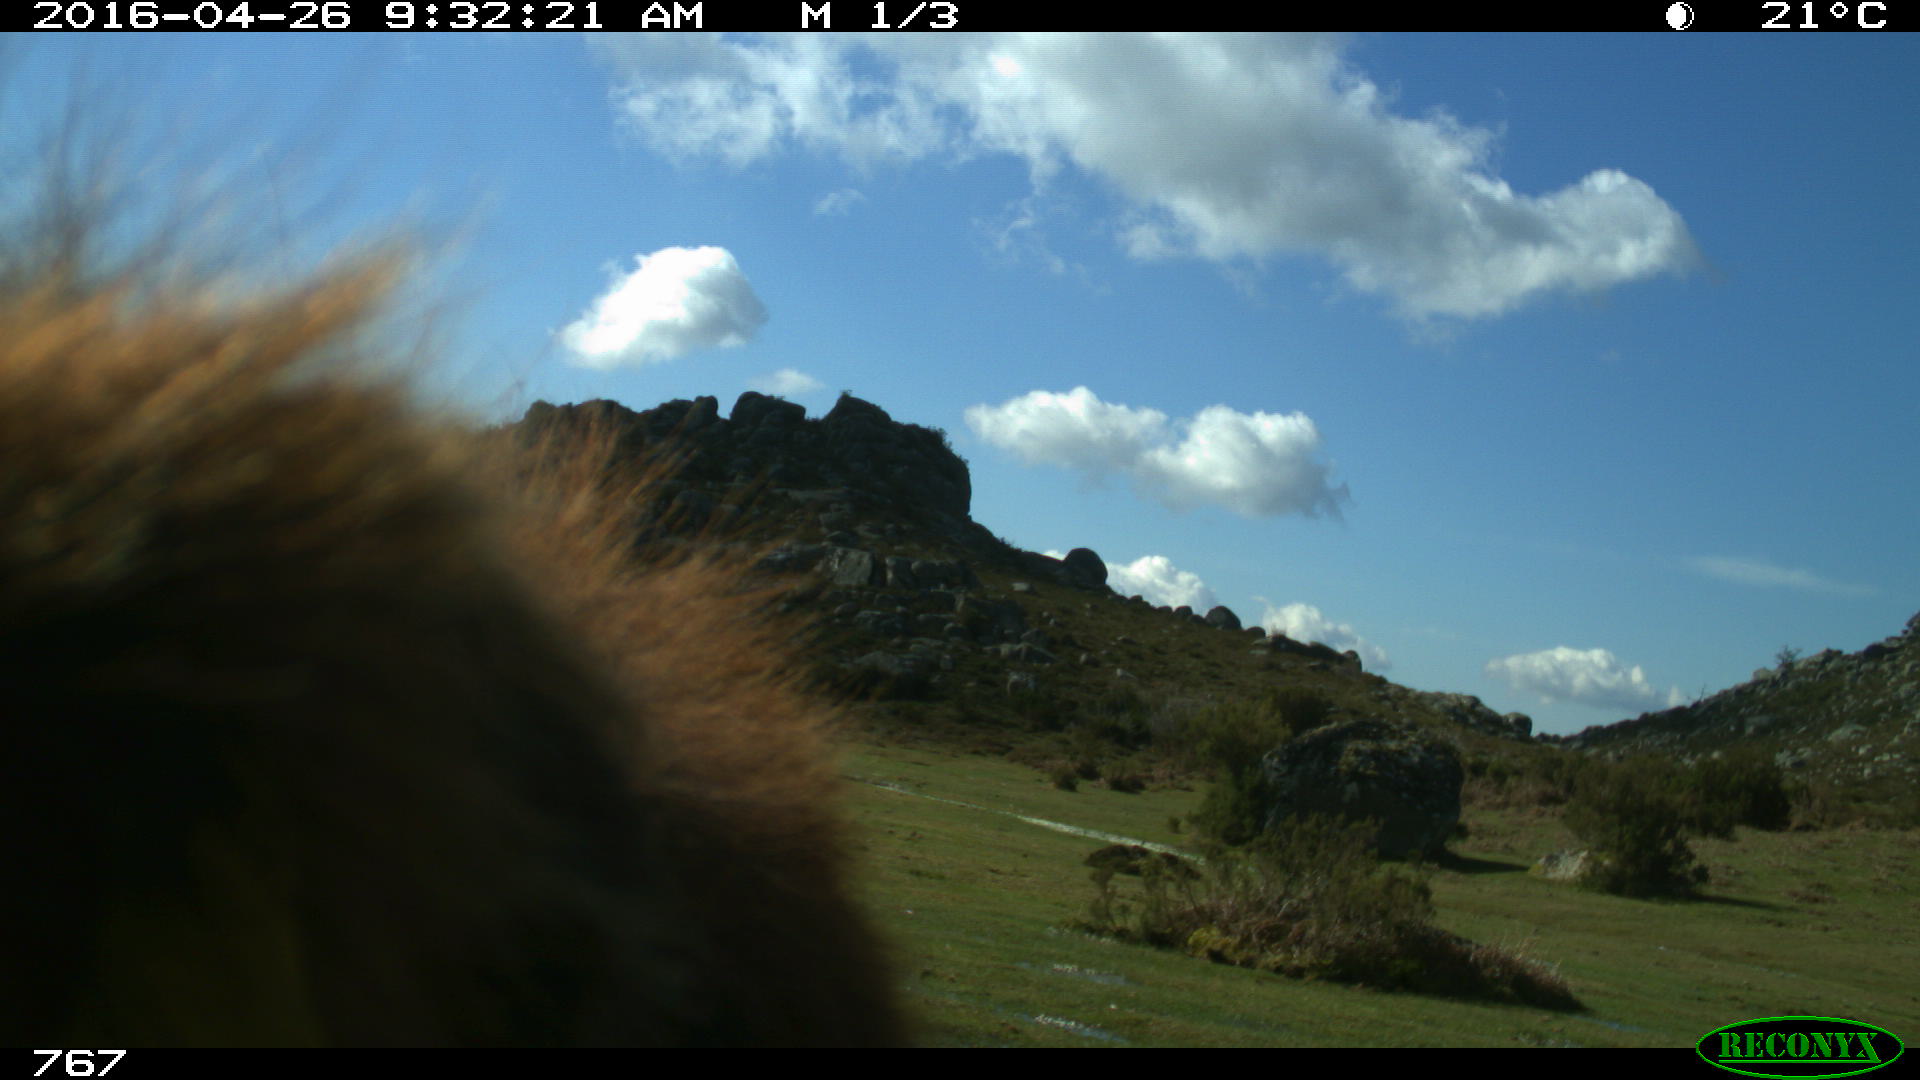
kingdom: Animalia
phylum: Chordata
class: Mammalia
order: Artiodactyla
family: Bovidae
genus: Bos
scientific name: Bos taurus
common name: Domesticated cattle
